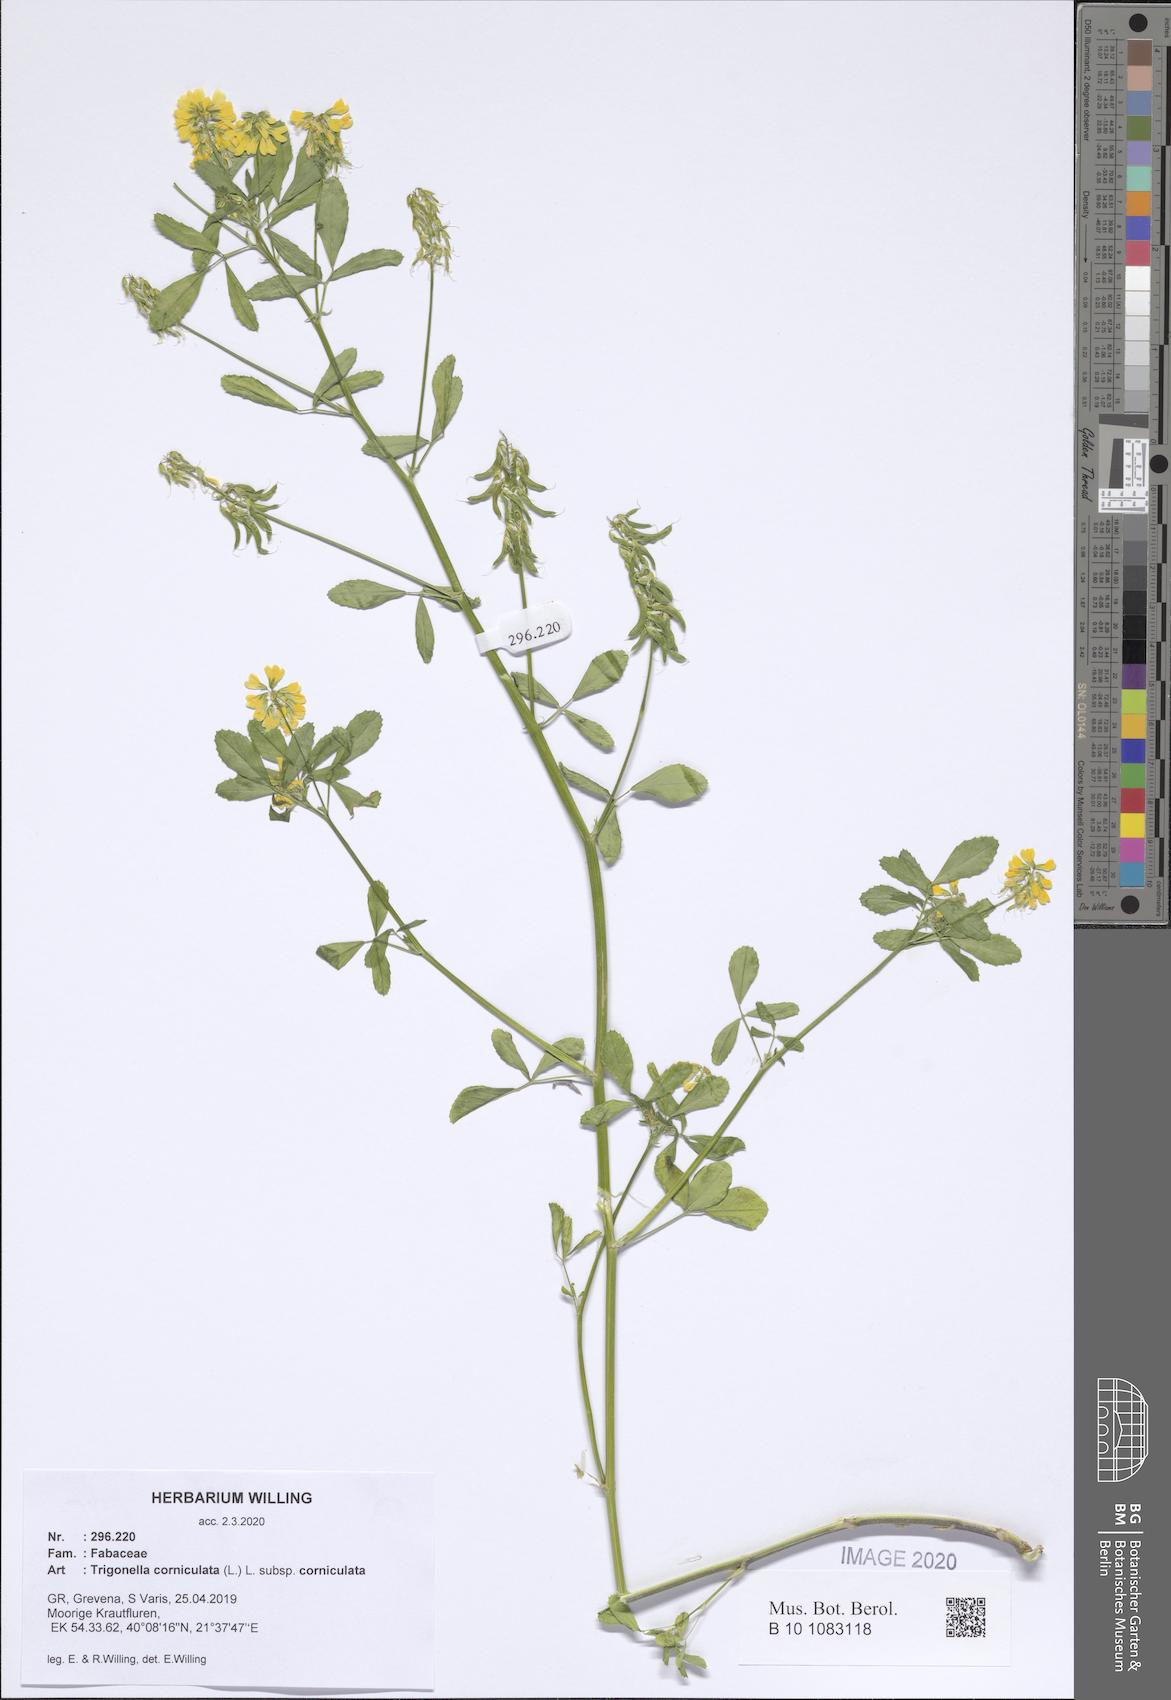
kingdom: Plantae
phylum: Tracheophyta
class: Magnoliopsida
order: Fabales
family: Fabaceae
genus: Trigonella
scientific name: Trigonella corniculata
